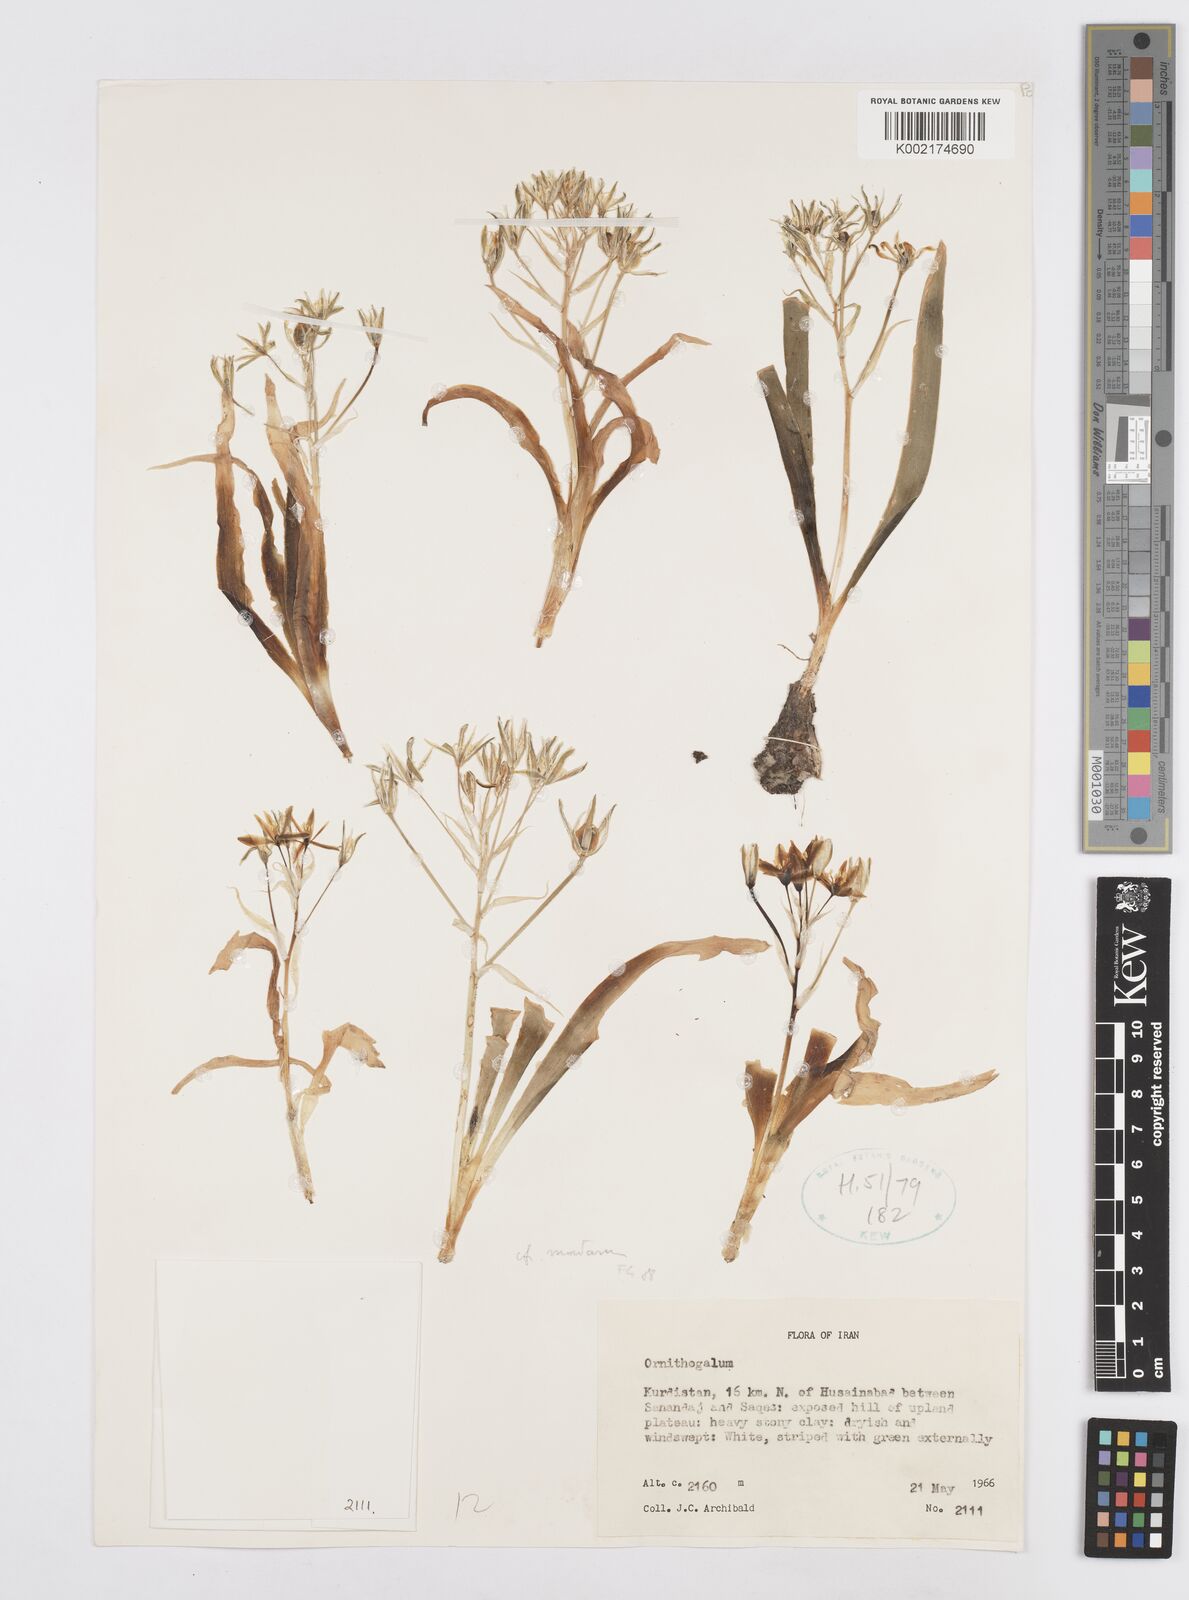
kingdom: Plantae
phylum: Tracheophyta
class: Liliopsida
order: Asparagales
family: Asparagaceae
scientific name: Asparagaceae
